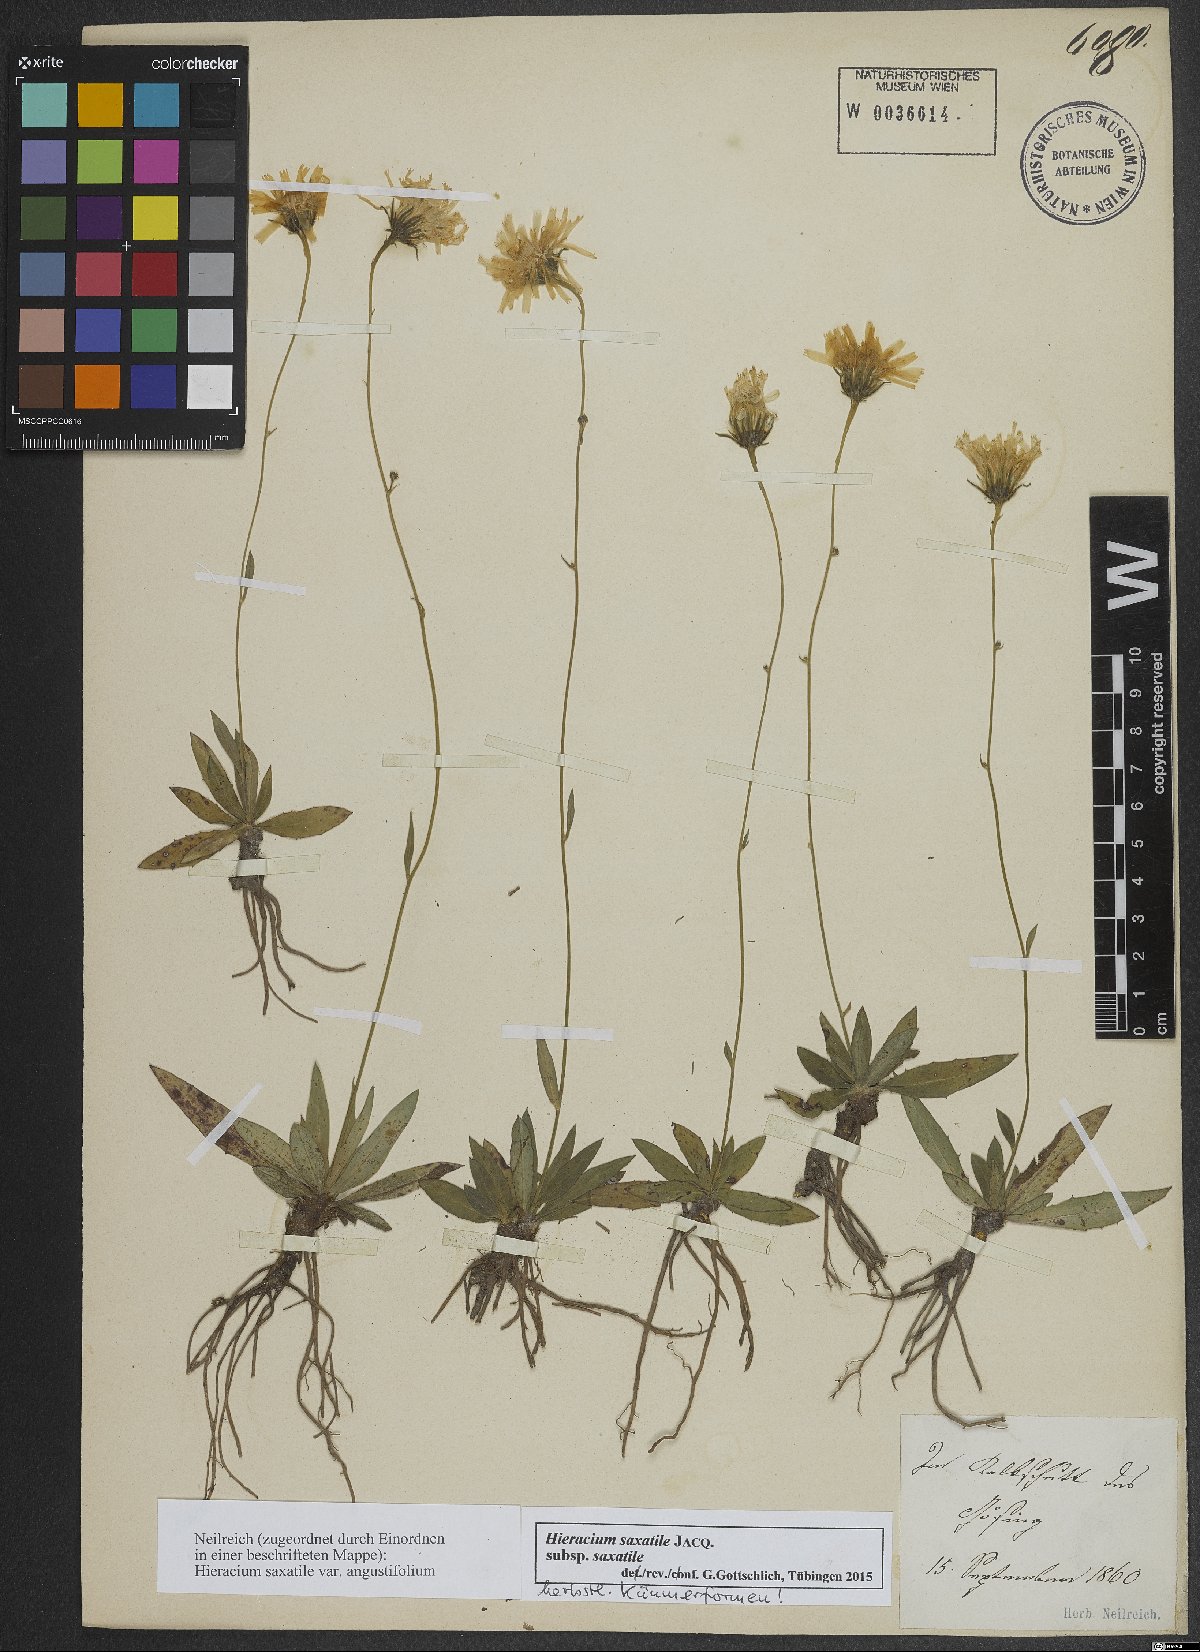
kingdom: Plantae
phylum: Tracheophyta
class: Magnoliopsida
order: Asterales
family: Asteraceae
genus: Hieracium
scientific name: Hieracium saxatile
